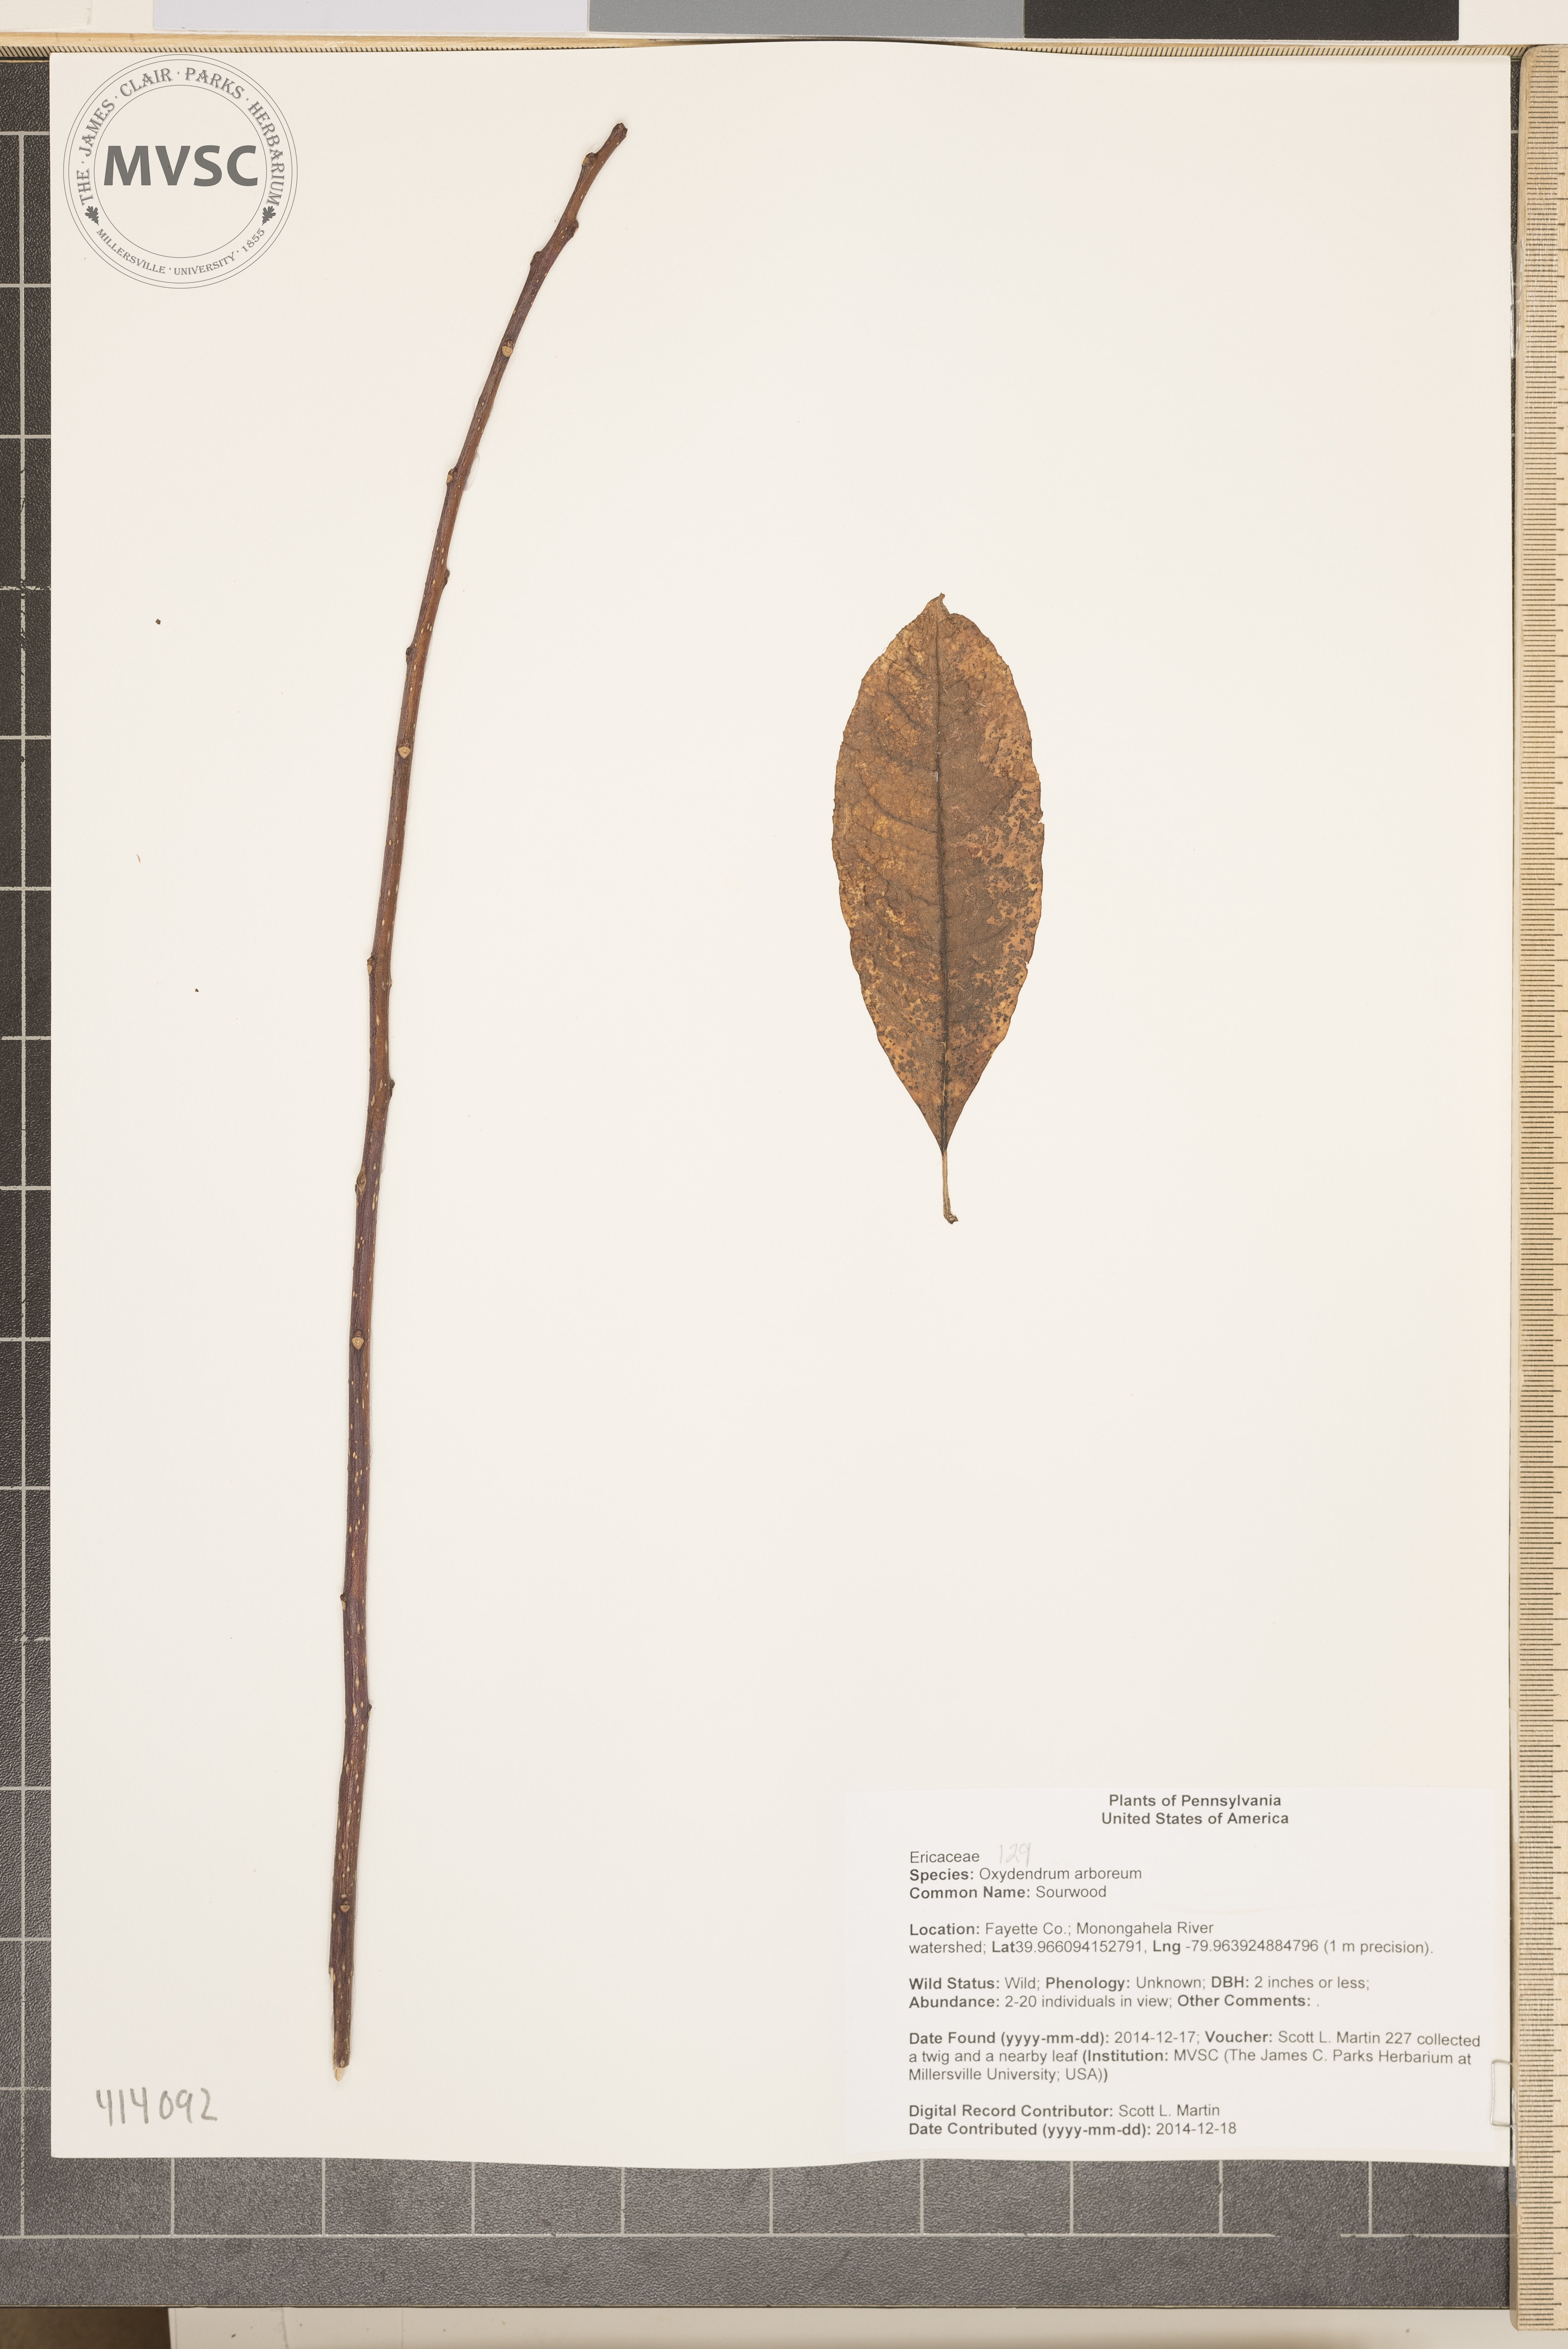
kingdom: Plantae
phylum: Tracheophyta
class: Magnoliopsida
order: Ericales
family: Ericaceae
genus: Oxydendrum
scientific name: Oxydendrum arboreum
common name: Sourwood
